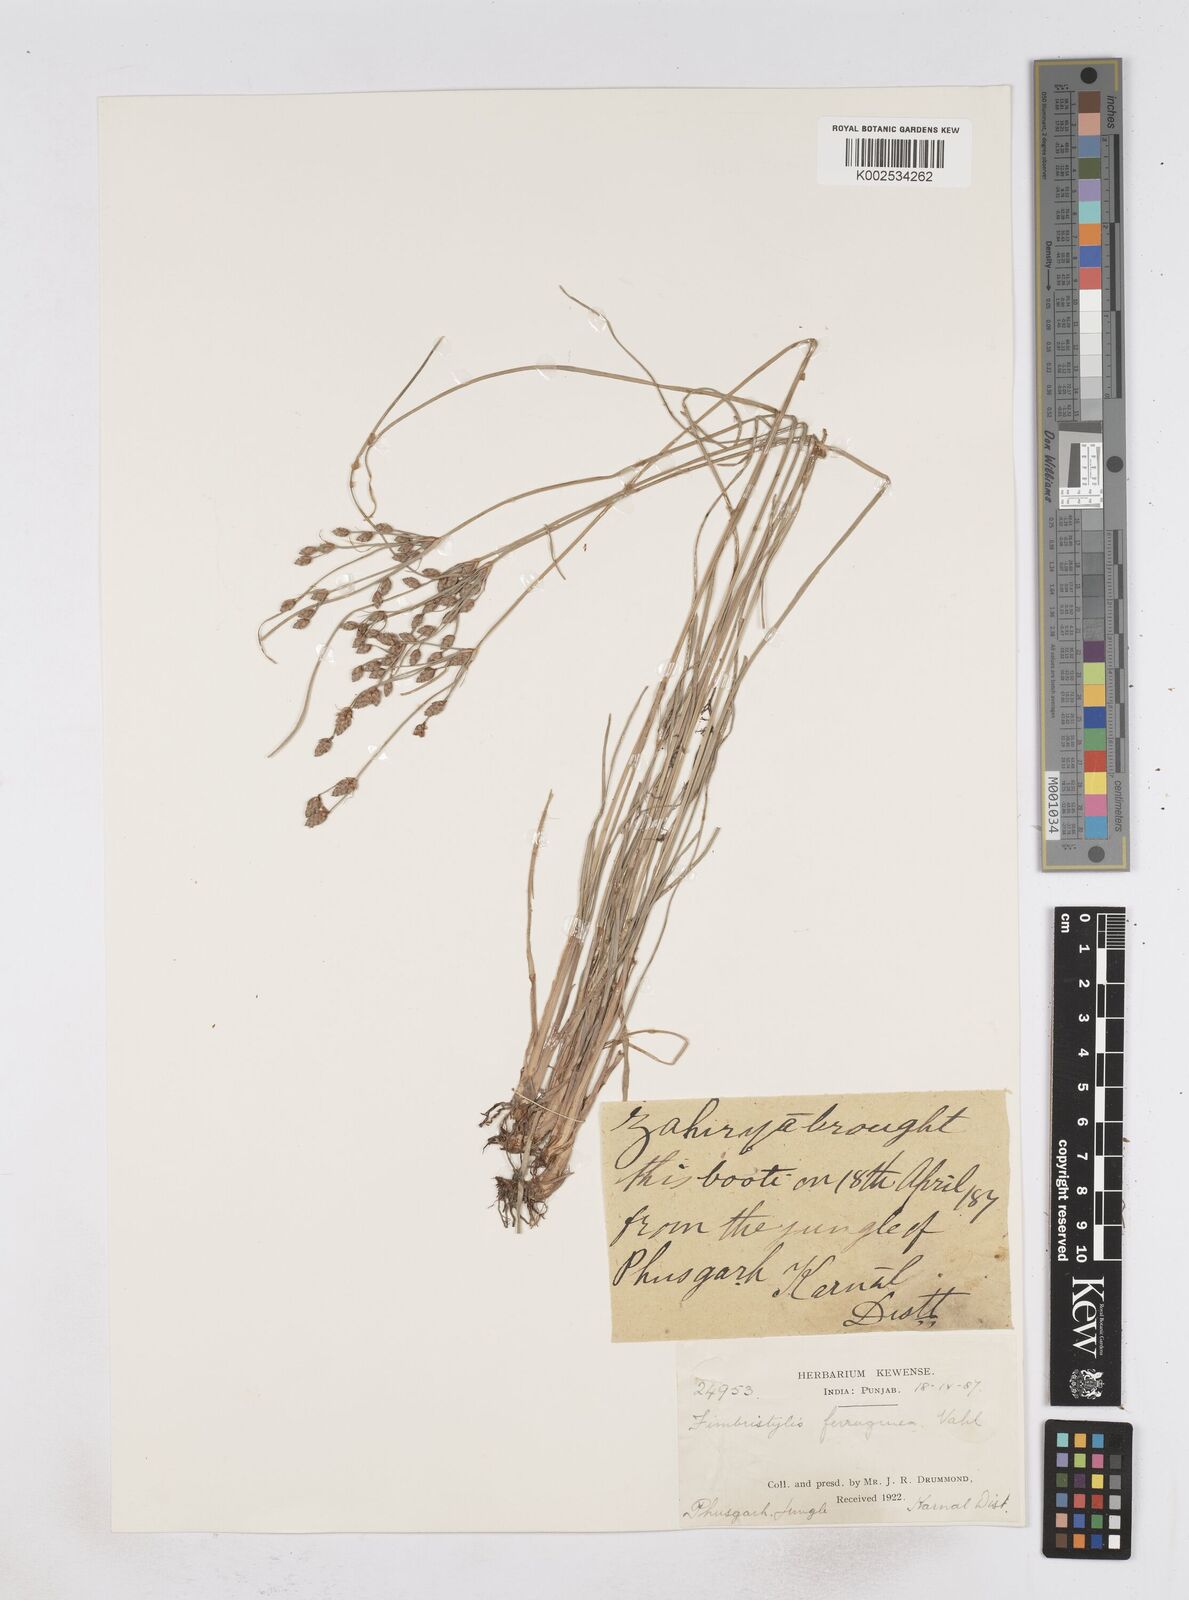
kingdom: Plantae
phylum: Tracheophyta
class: Liliopsida
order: Poales
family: Cyperaceae
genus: Fimbristylis
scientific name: Fimbristylis ferruginea
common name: West indian fimbry
